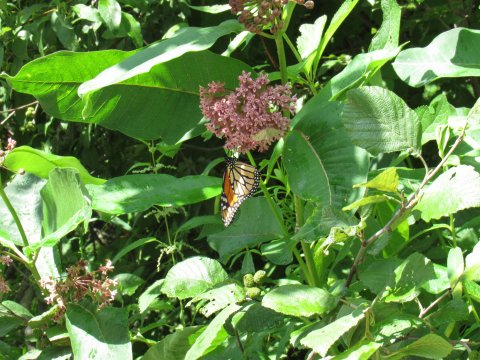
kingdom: Animalia
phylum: Arthropoda
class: Insecta
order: Lepidoptera
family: Nymphalidae
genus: Danaus
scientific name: Danaus plexippus
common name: Monarch
